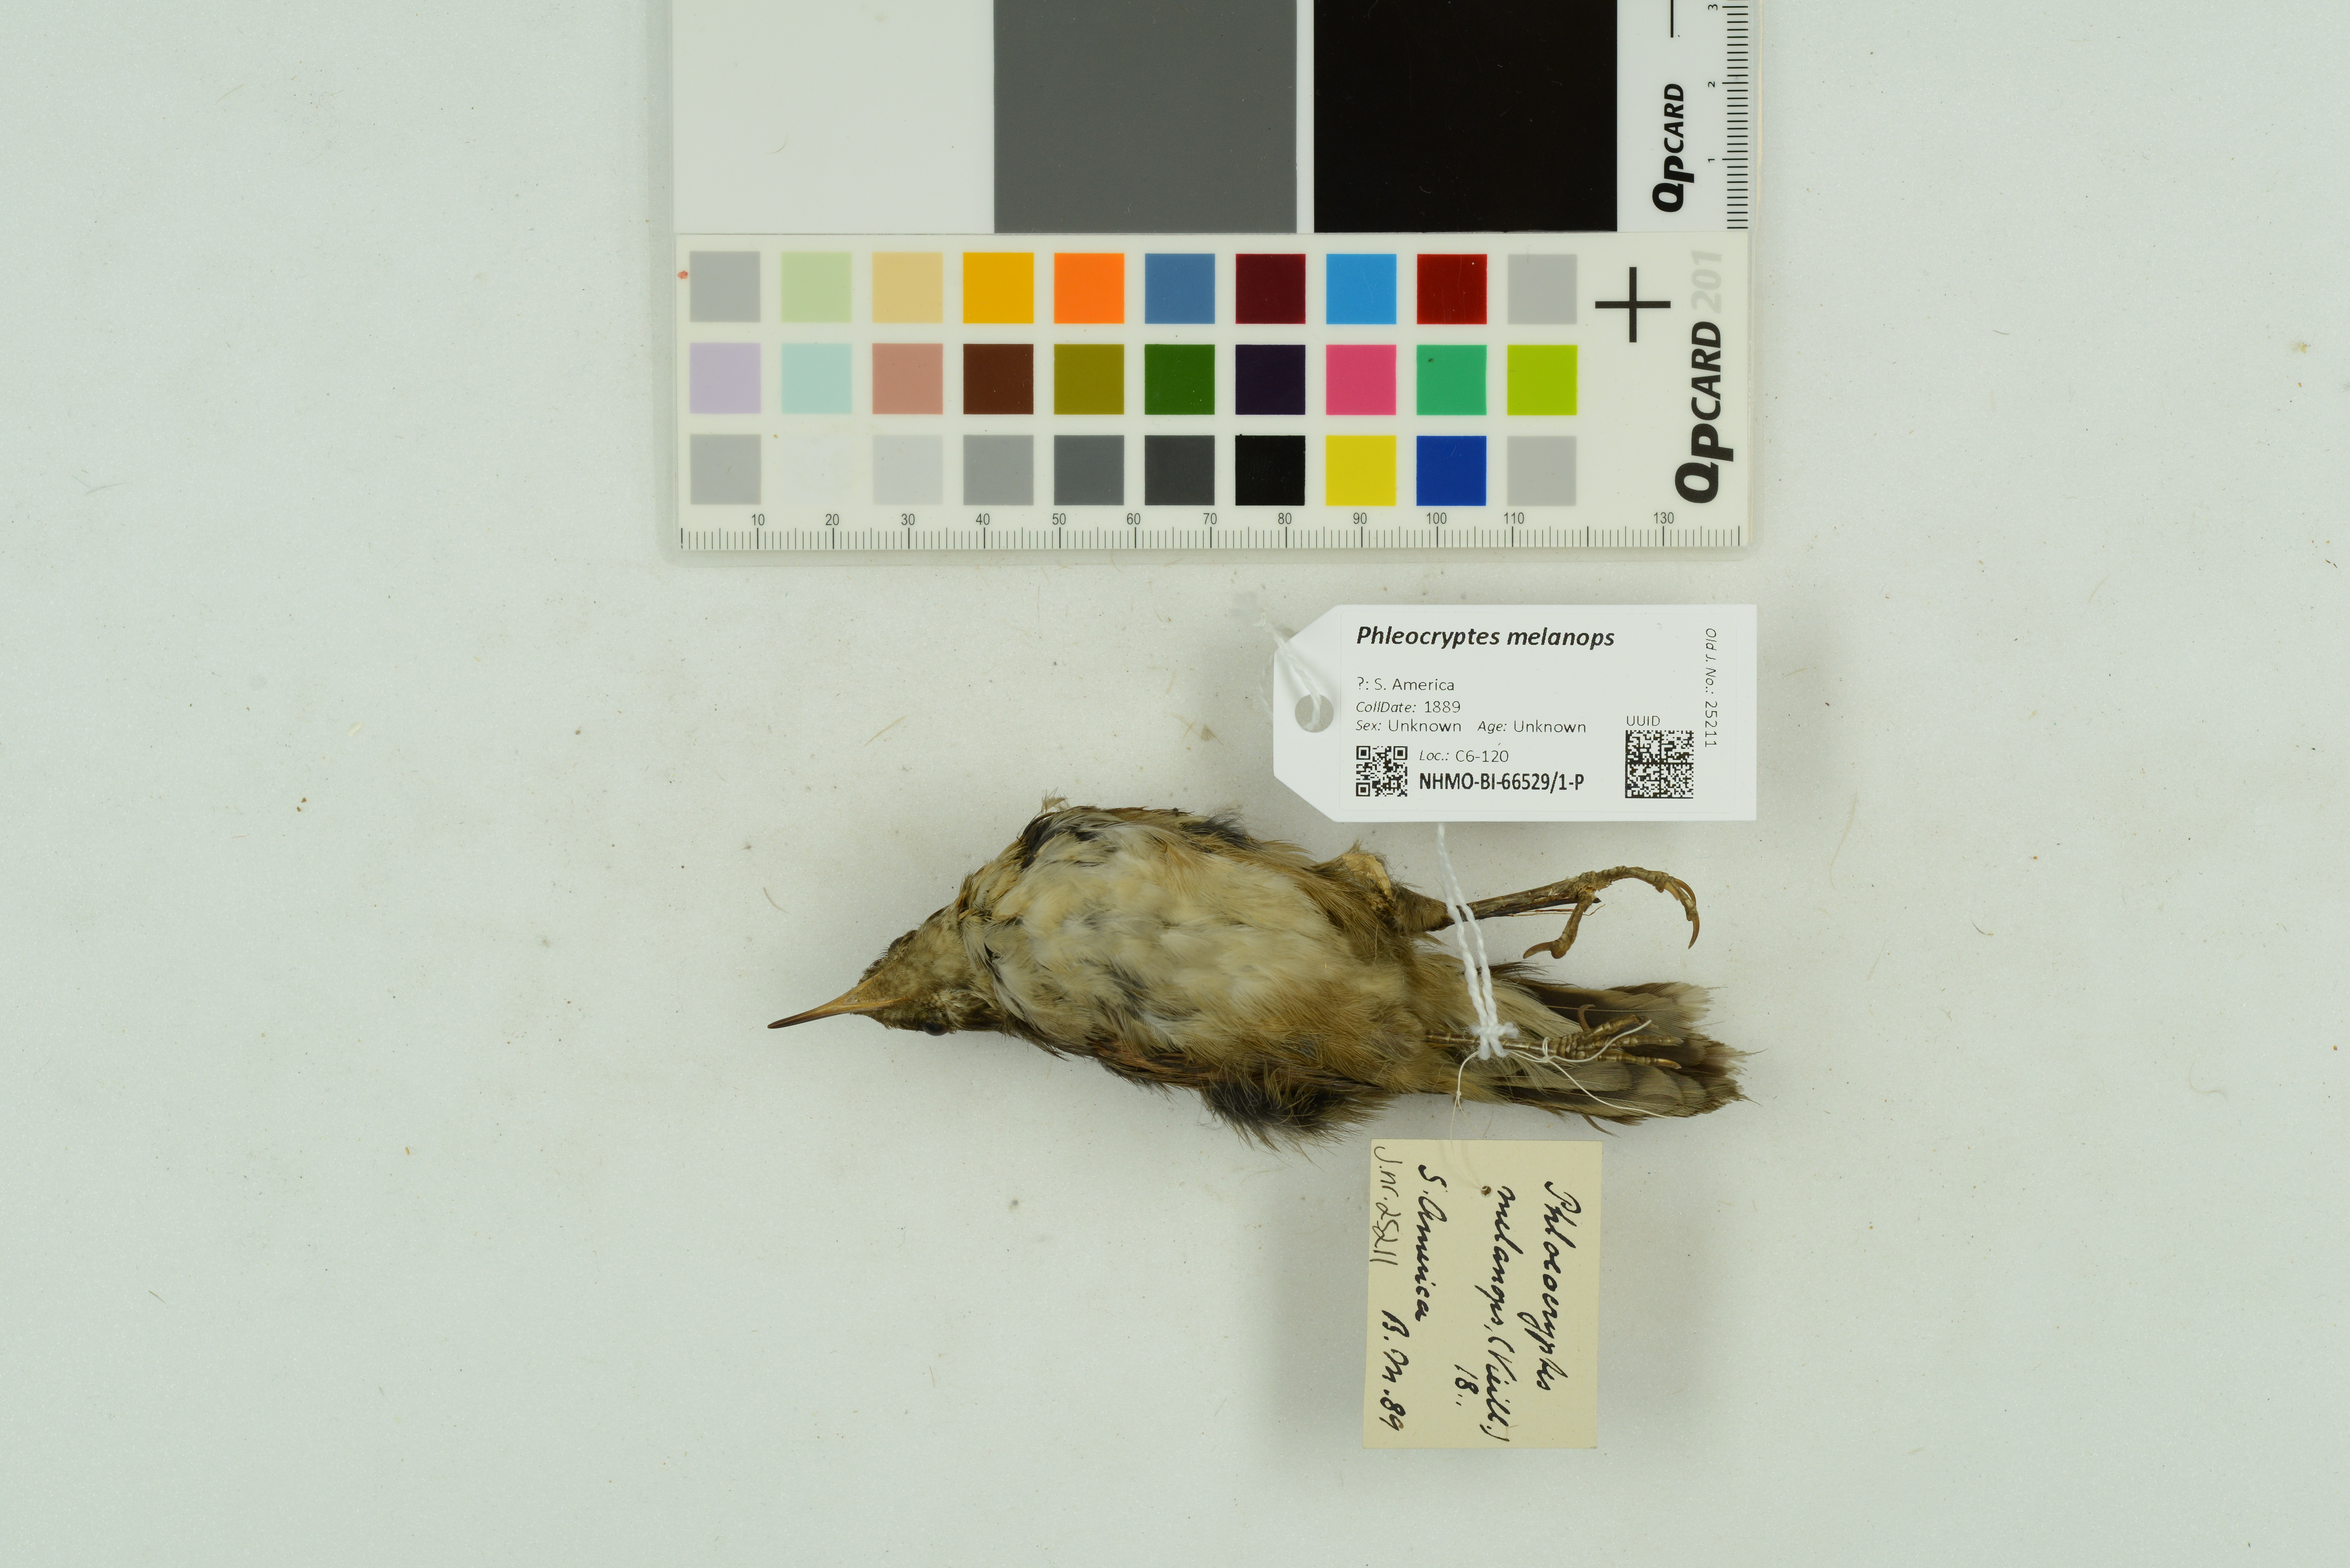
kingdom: Animalia
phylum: Chordata
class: Aves
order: Passeriformes
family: Furnariidae
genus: Phleocryptes
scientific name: Phleocryptes melanops
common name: Wren-like rushbird
